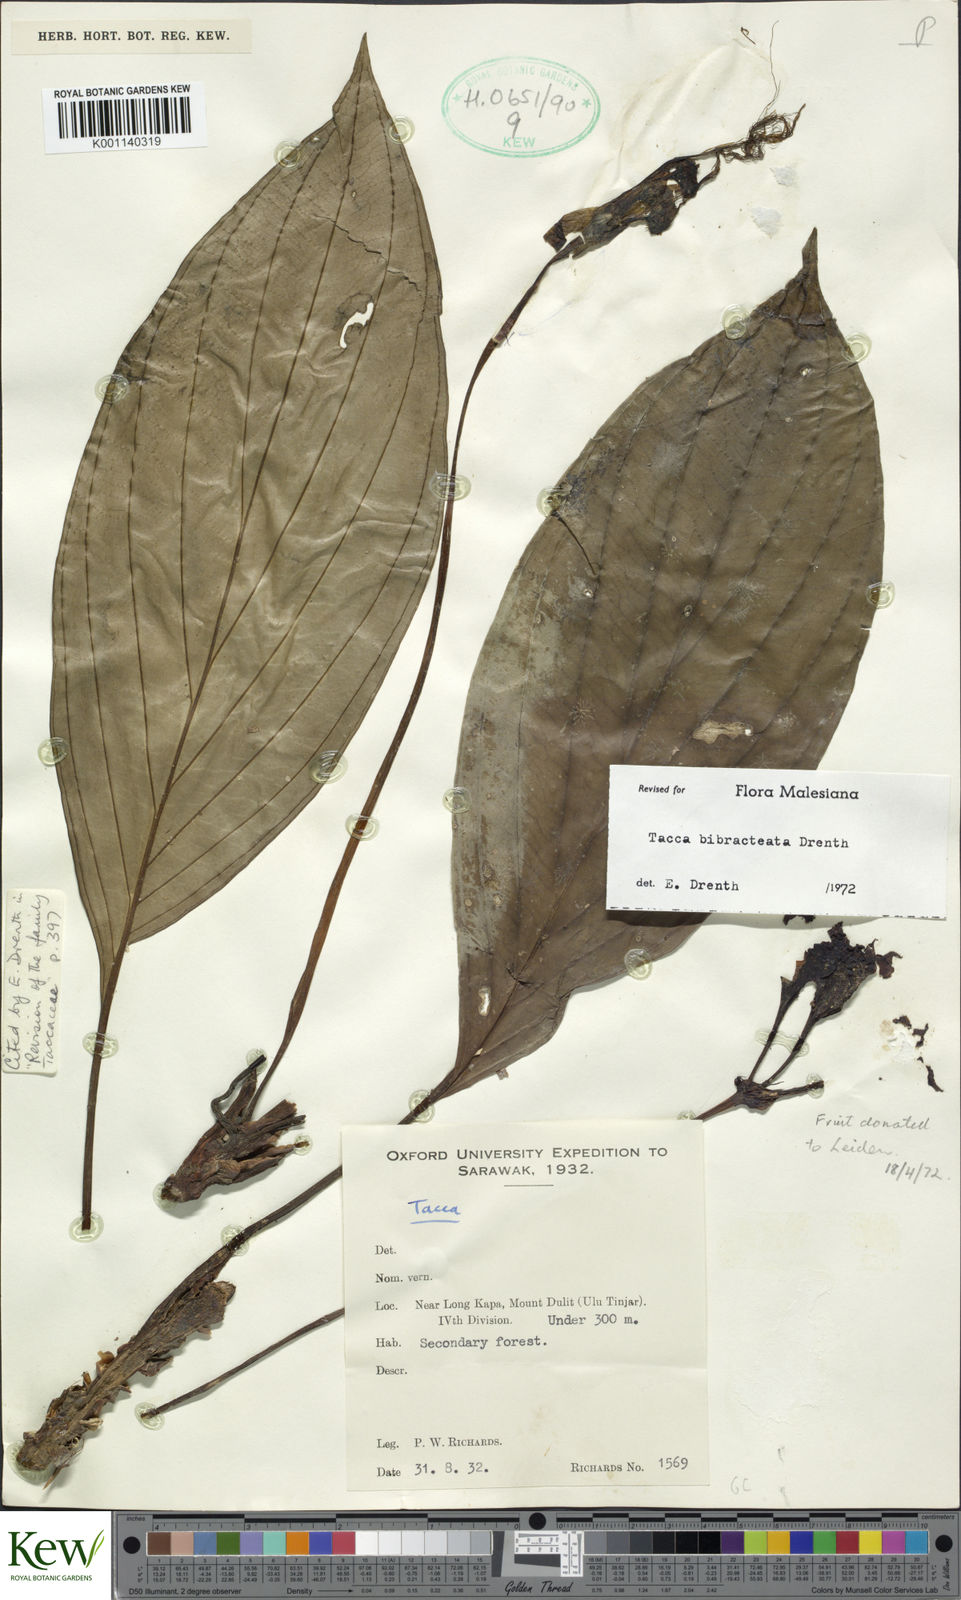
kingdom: Plantae
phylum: Tracheophyta
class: Liliopsida
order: Dioscoreales
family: Dioscoreaceae
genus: Tacca
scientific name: Tacca bibracteata
